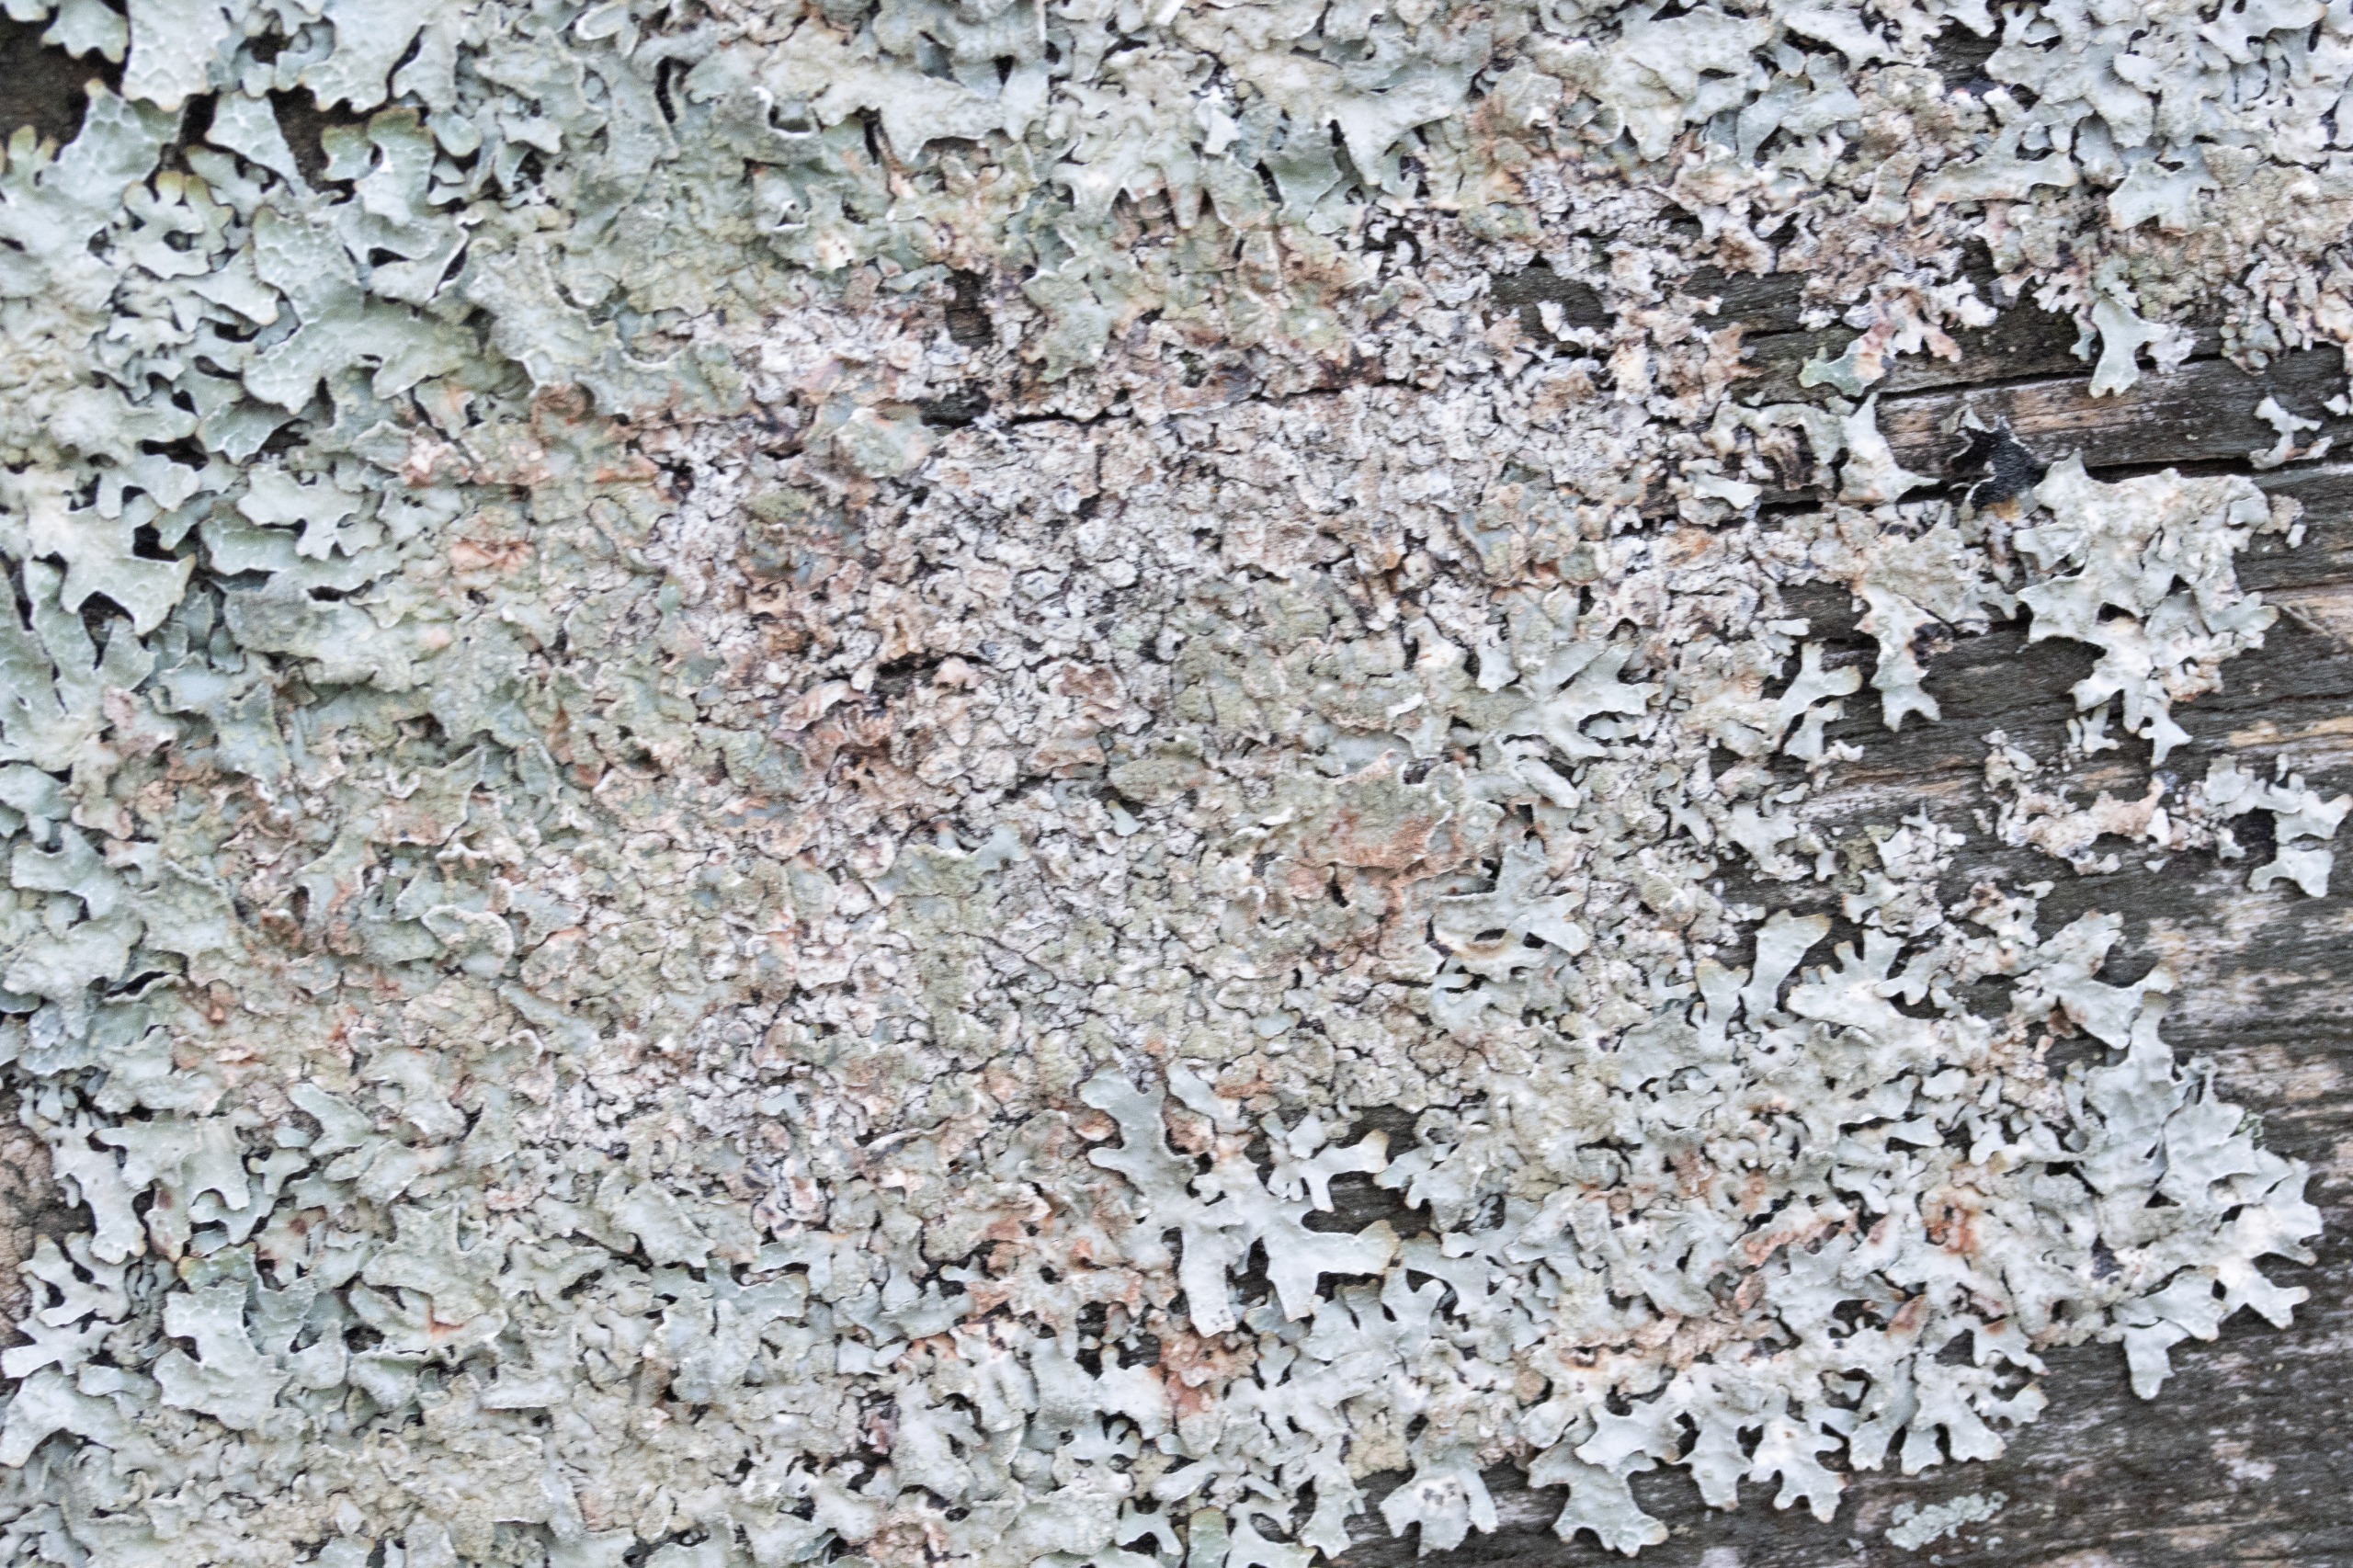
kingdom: Fungi
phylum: Ascomycota
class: Lecanoromycetes
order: Lecanorales
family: Parmeliaceae
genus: Parmelia
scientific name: Parmelia sulcata
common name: Rynket skållav
